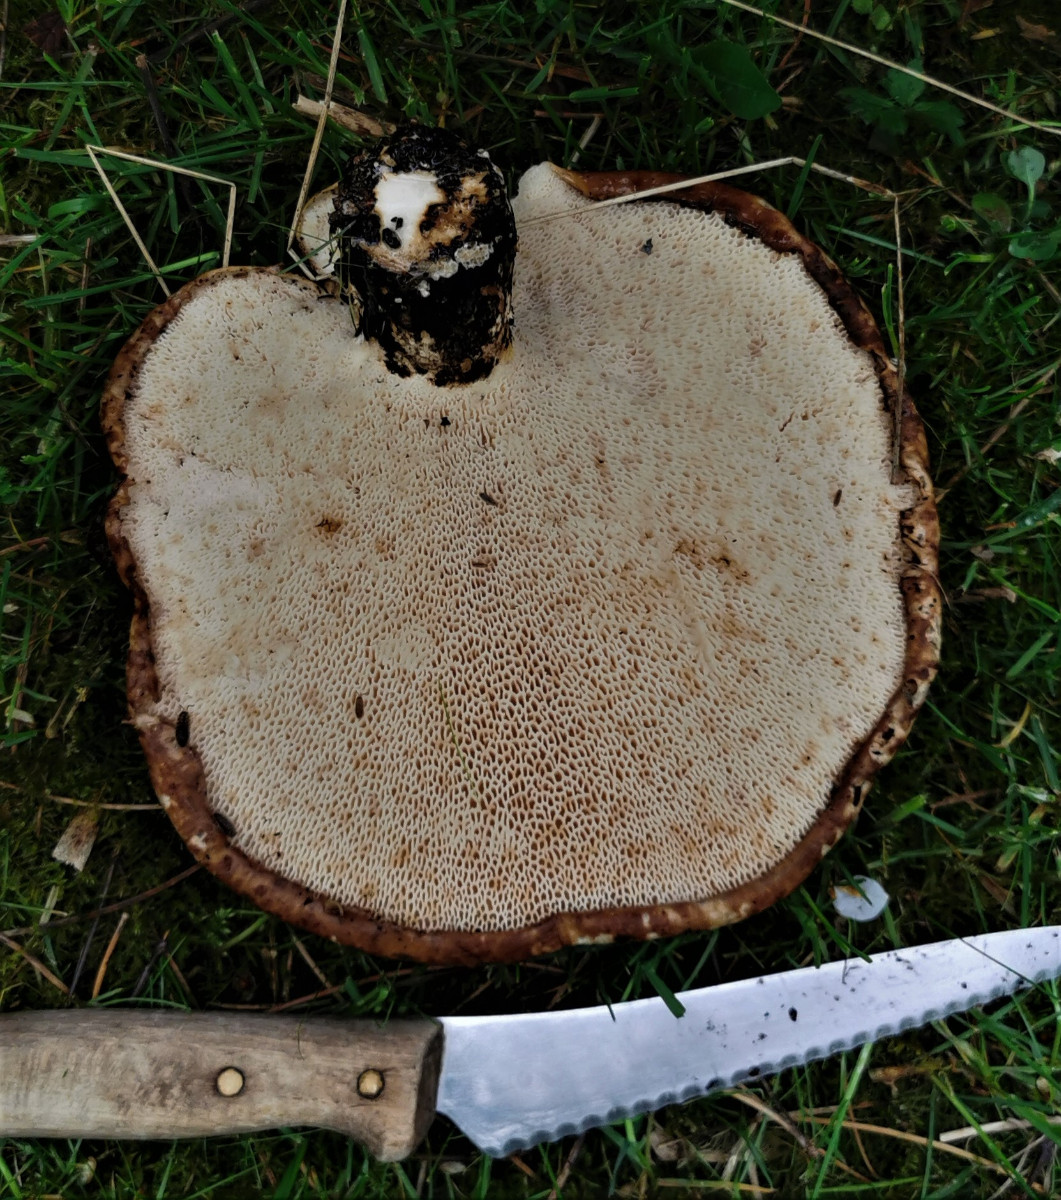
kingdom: Fungi
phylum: Basidiomycota
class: Agaricomycetes
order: Polyporales
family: Polyporaceae
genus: Cerioporus
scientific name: Cerioporus squamosus
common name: skællet stilkporesvamp
